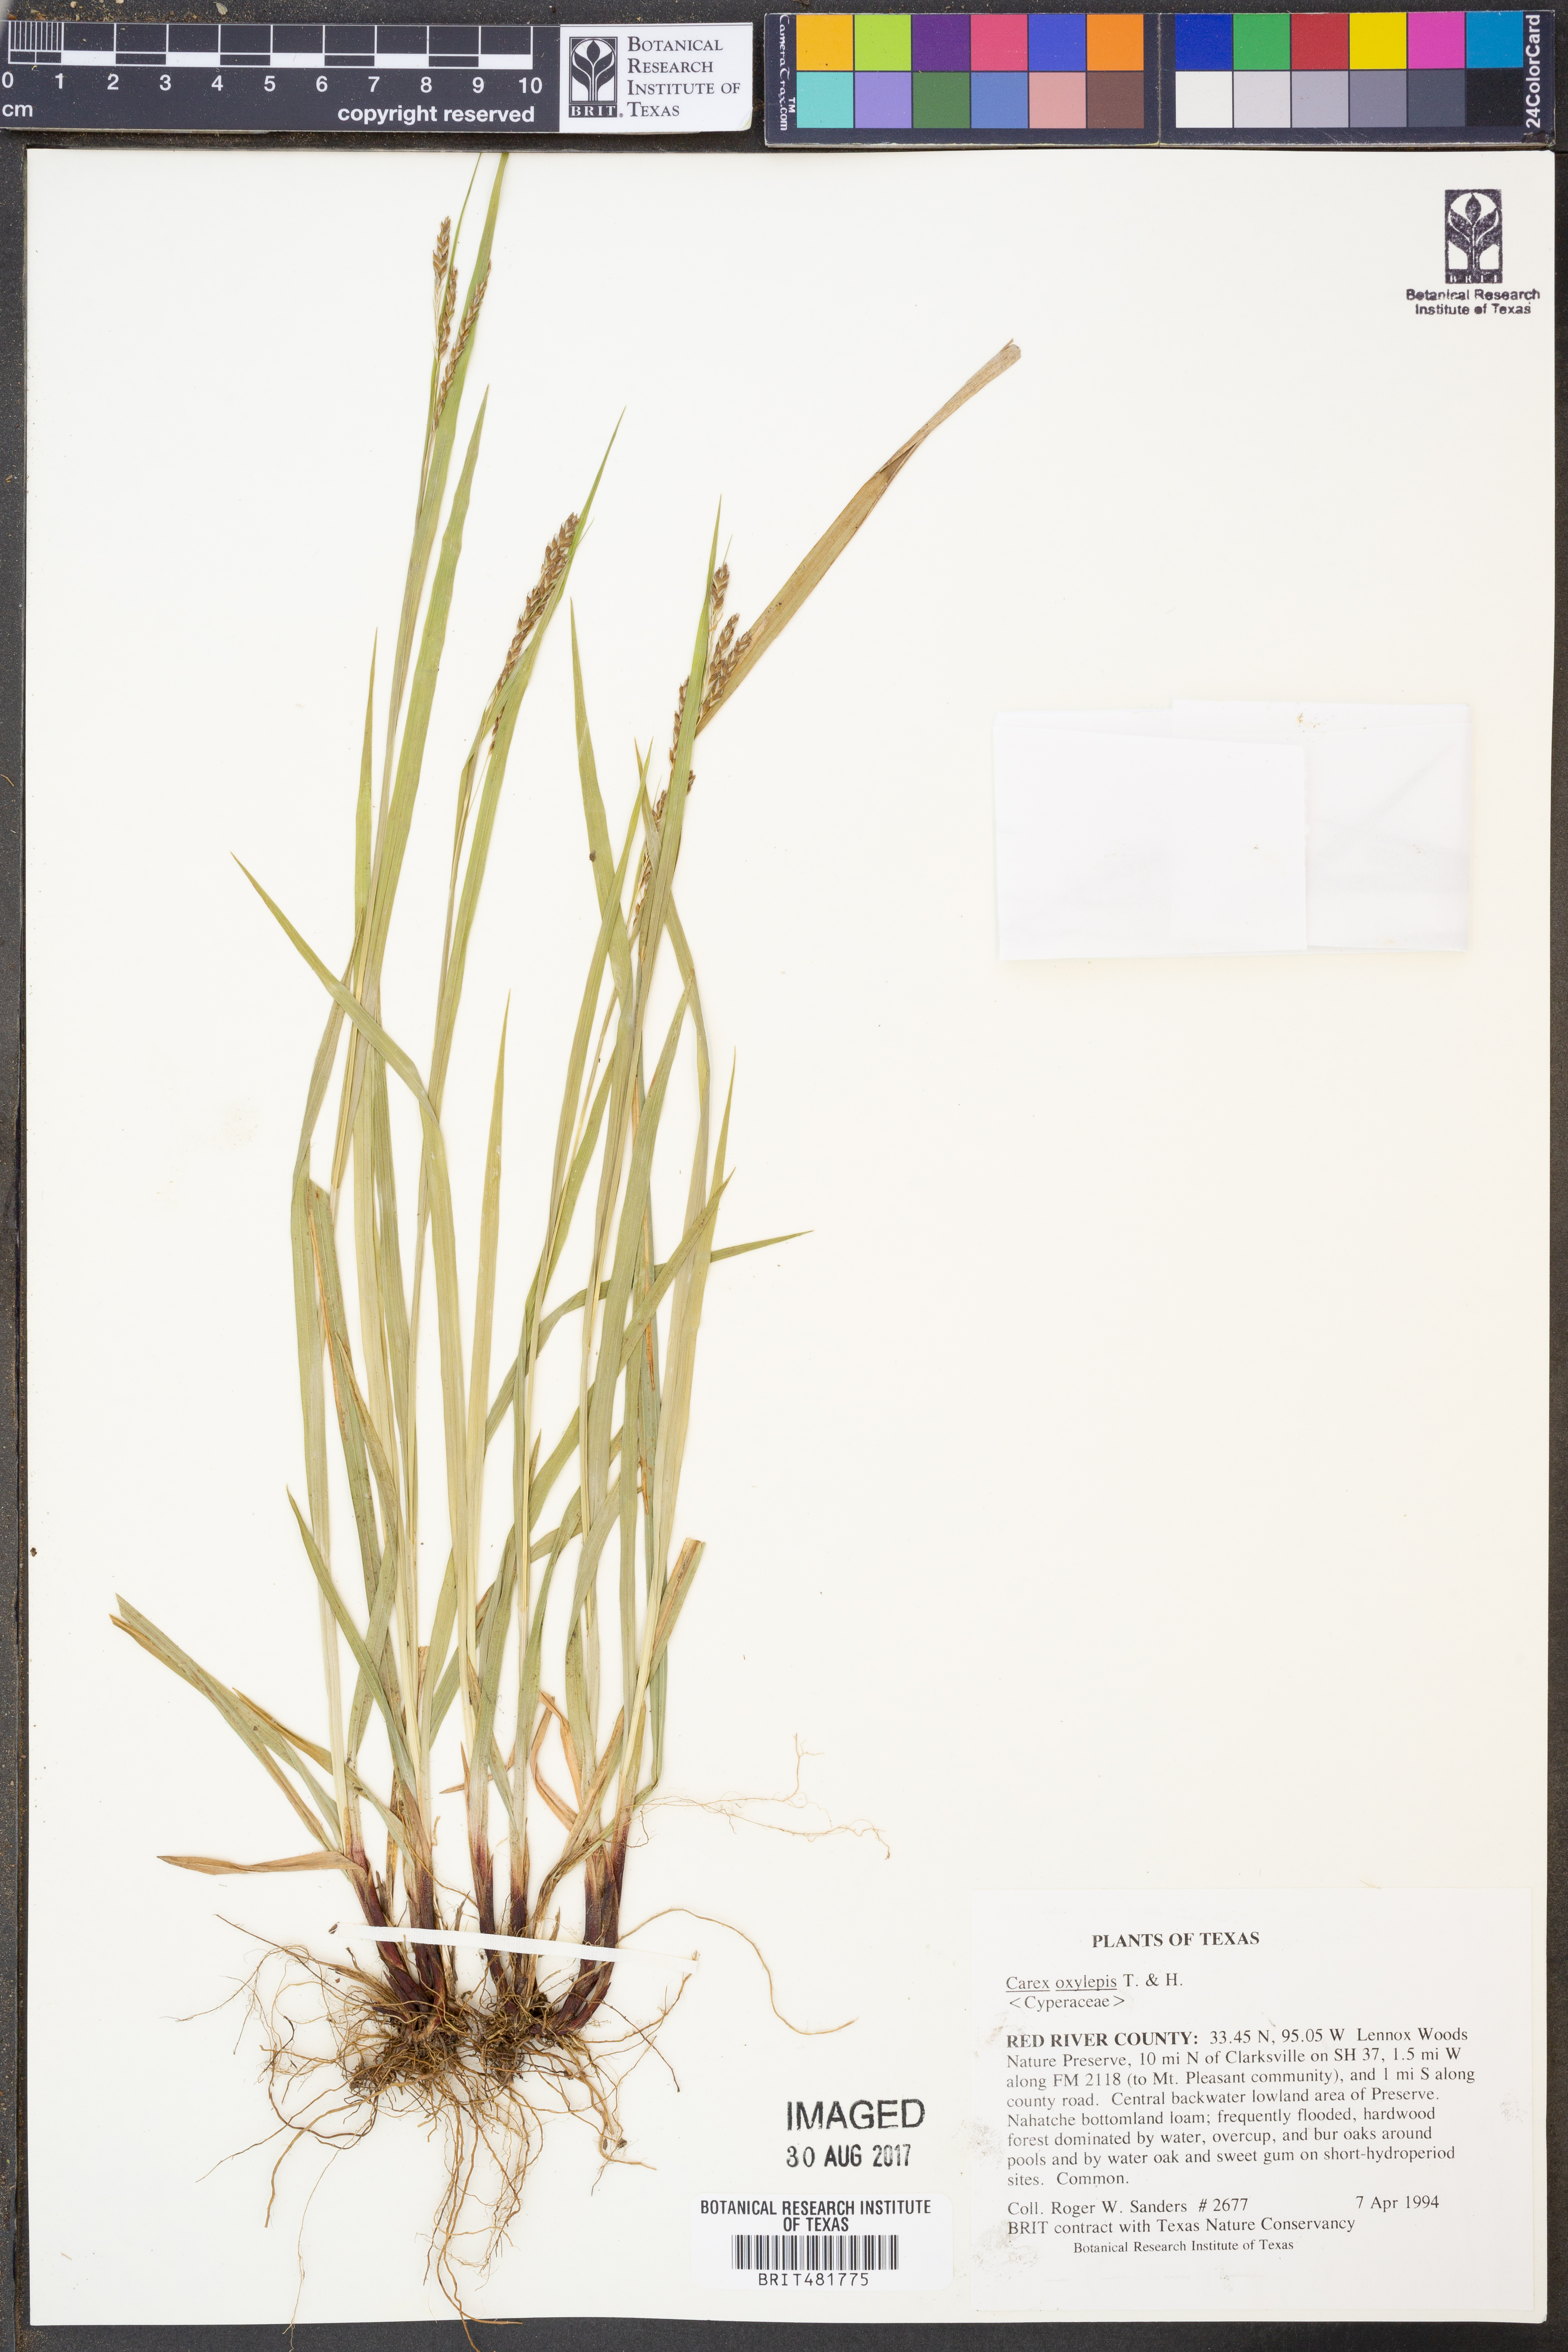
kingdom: Plantae
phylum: Tracheophyta
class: Liliopsida
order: Poales
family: Cyperaceae
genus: Carex
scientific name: Carex oxylepis
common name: Sharpscale sedge
